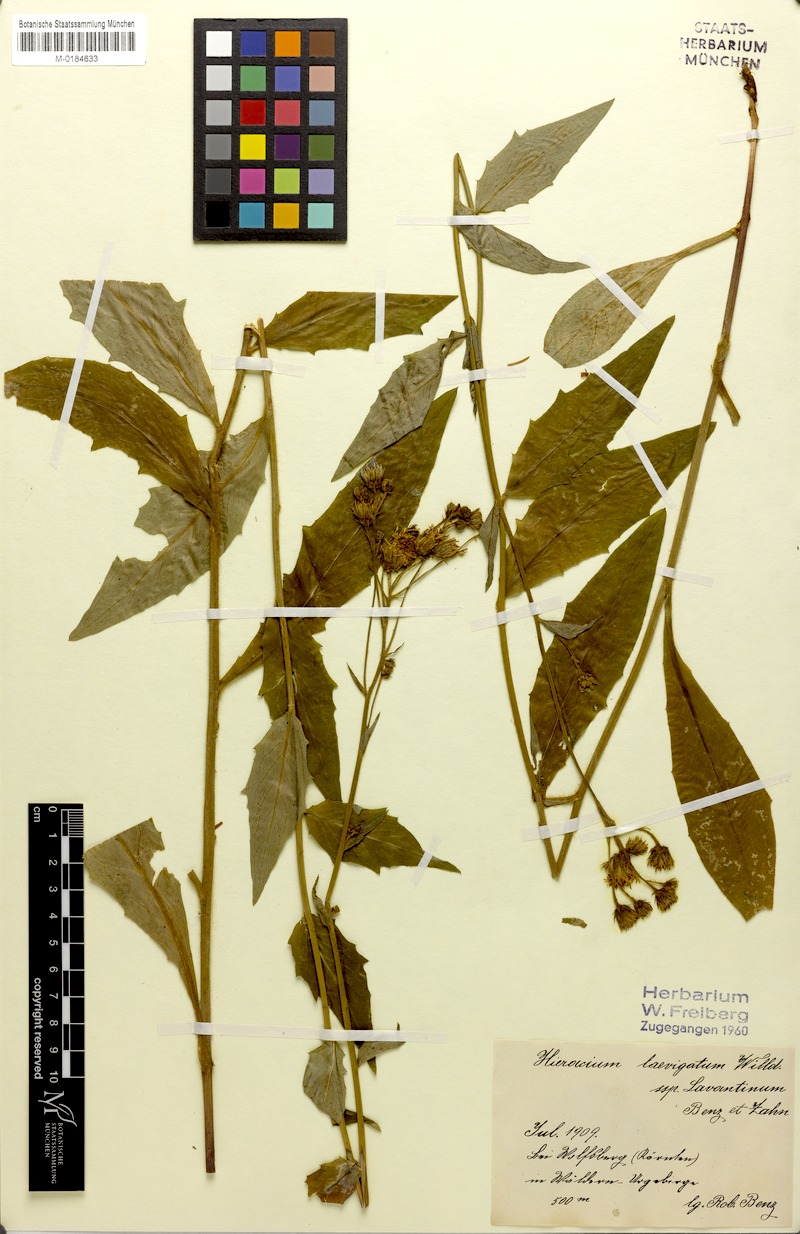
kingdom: Plantae
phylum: Tracheophyta
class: Magnoliopsida
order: Asterales
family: Asteraceae
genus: Hieracium
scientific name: Hieracium flagelliferum
